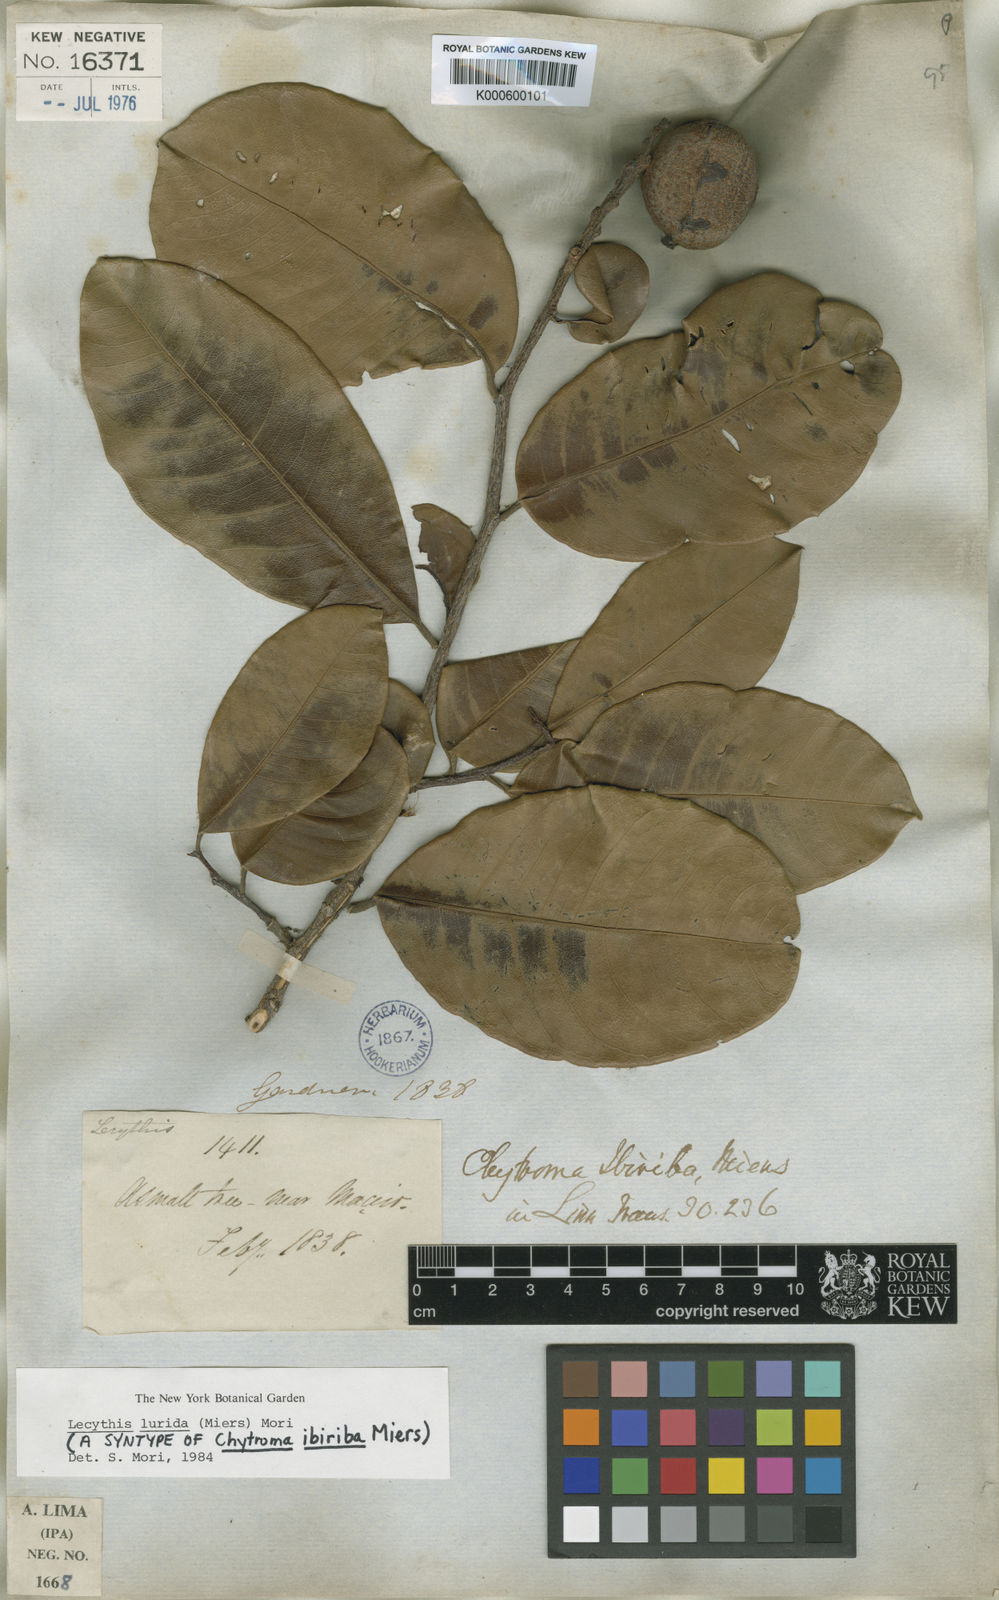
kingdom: Plantae
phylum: Tracheophyta
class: Magnoliopsida
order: Ericales
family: Lecythidaceae
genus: Lecythis
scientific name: Lecythis lurida
